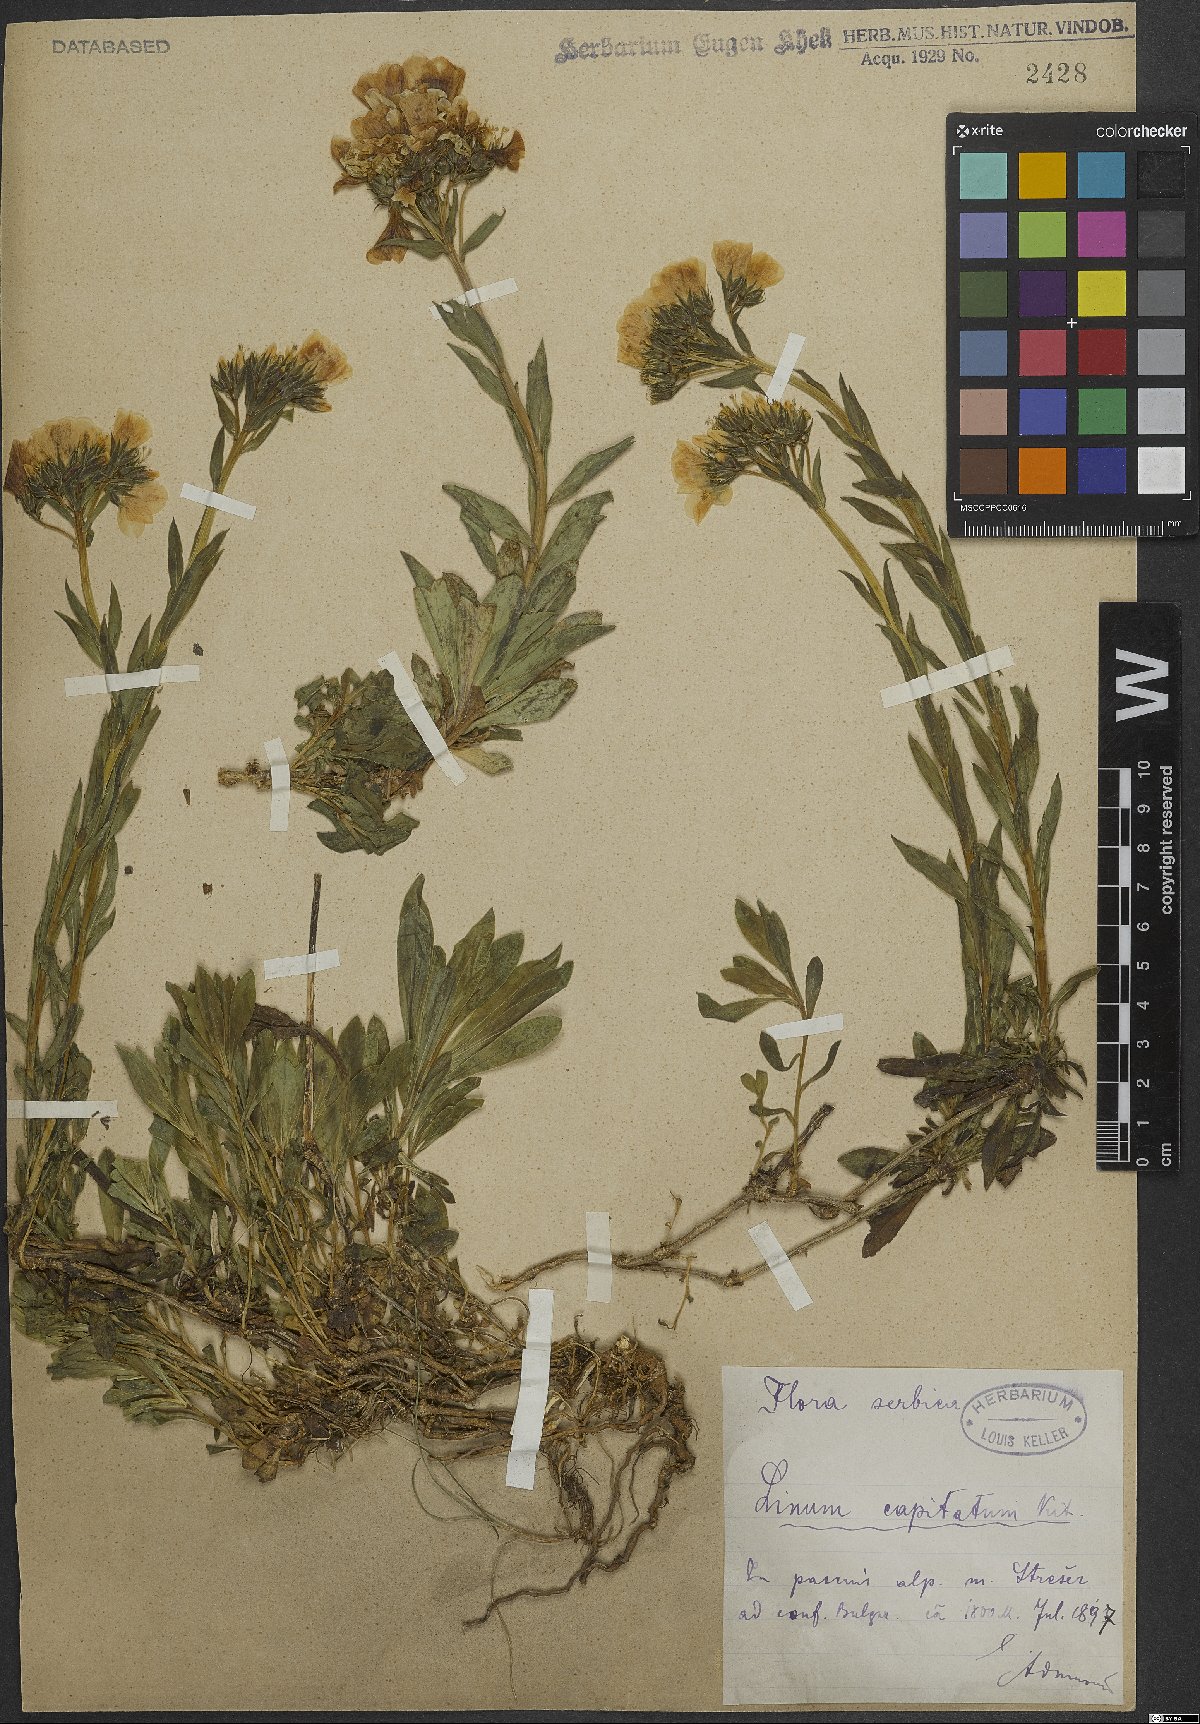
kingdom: Plantae
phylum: Tracheophyta
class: Magnoliopsida
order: Malpighiales
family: Linaceae
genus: Linum
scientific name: Linum capitatum
